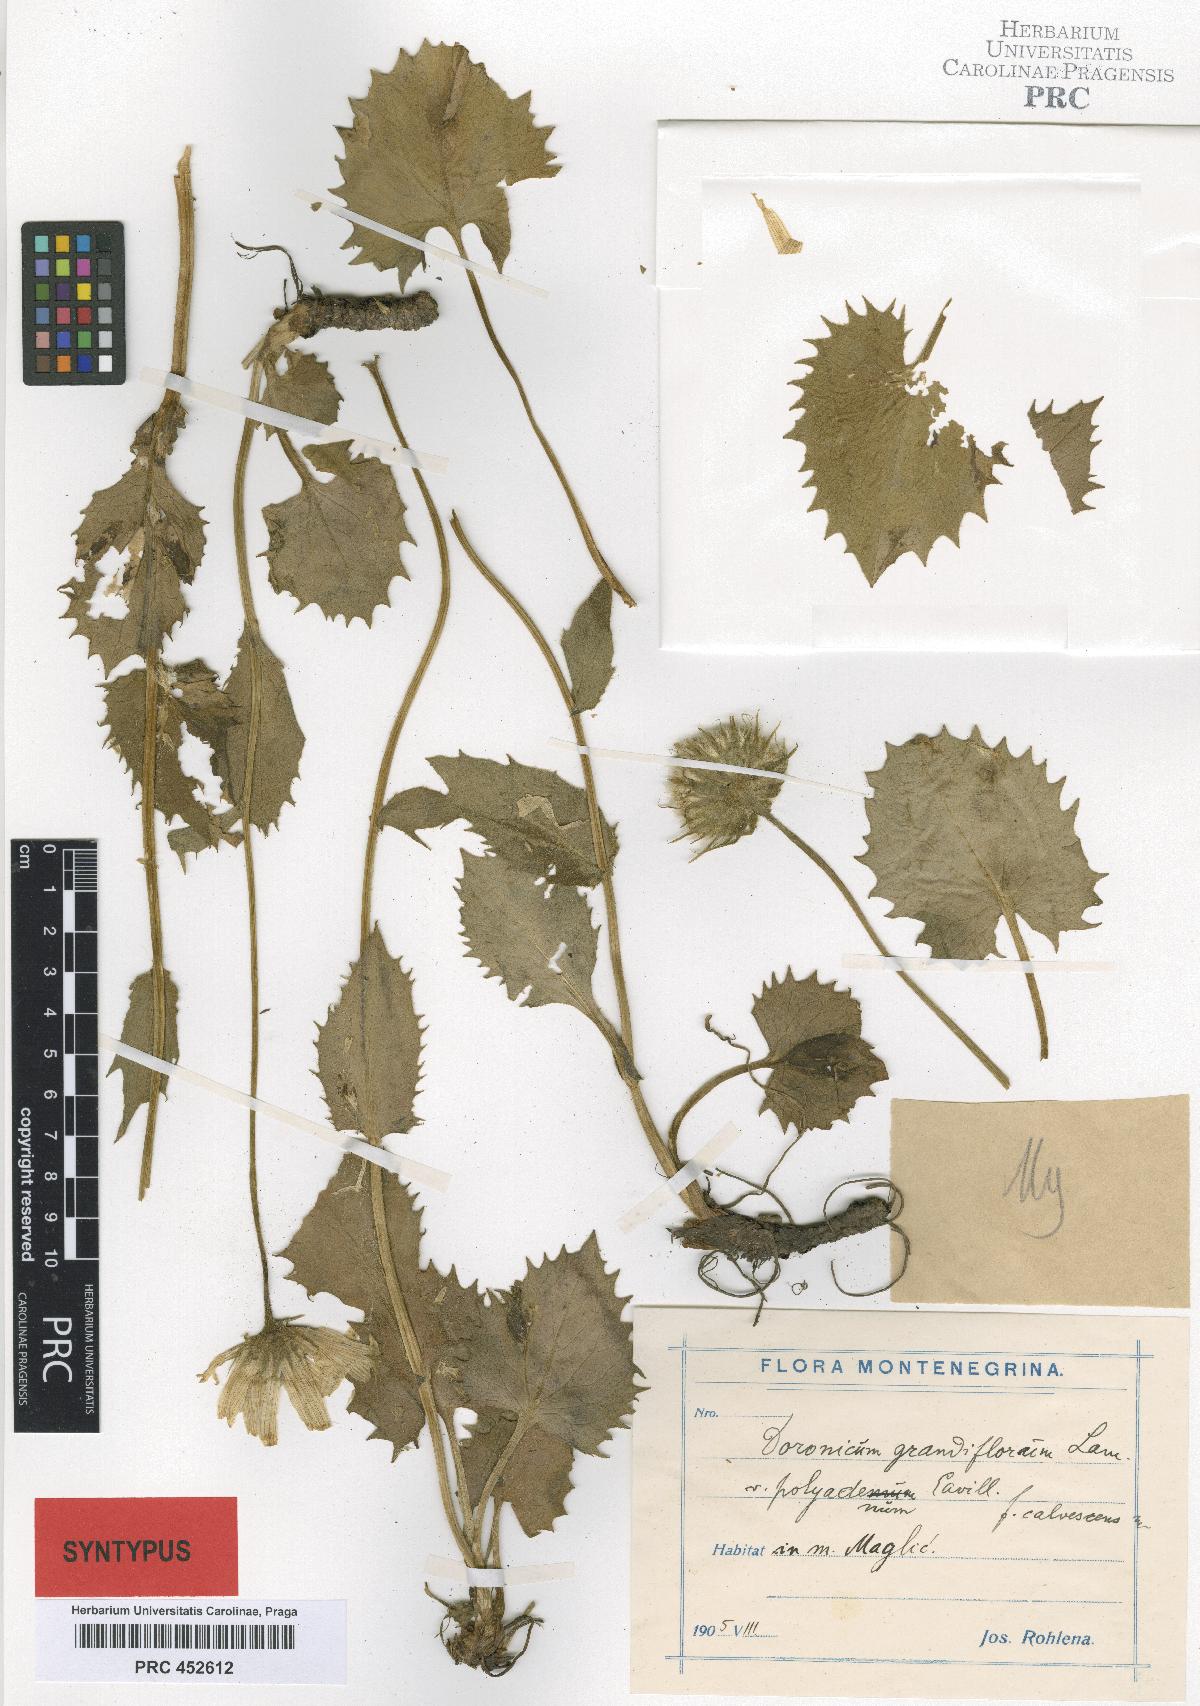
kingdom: Plantae
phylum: Tracheophyta
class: Magnoliopsida
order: Asterales
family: Asteraceae
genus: Doronicum
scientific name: Doronicum grandiflorum
